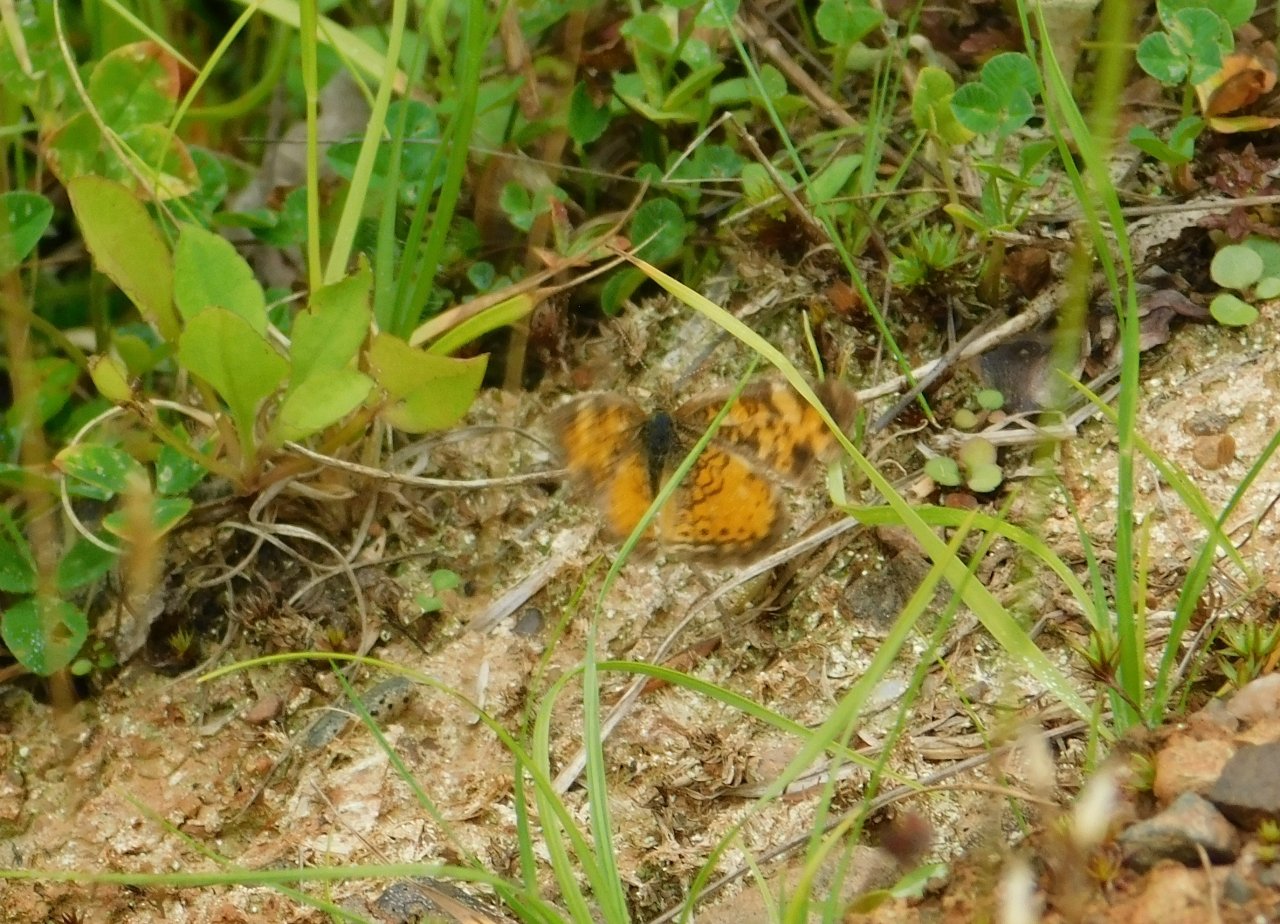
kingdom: Animalia
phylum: Arthropoda
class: Insecta
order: Lepidoptera
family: Nymphalidae
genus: Phyciodes
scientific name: Phyciodes tharos
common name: Northern Crescent
